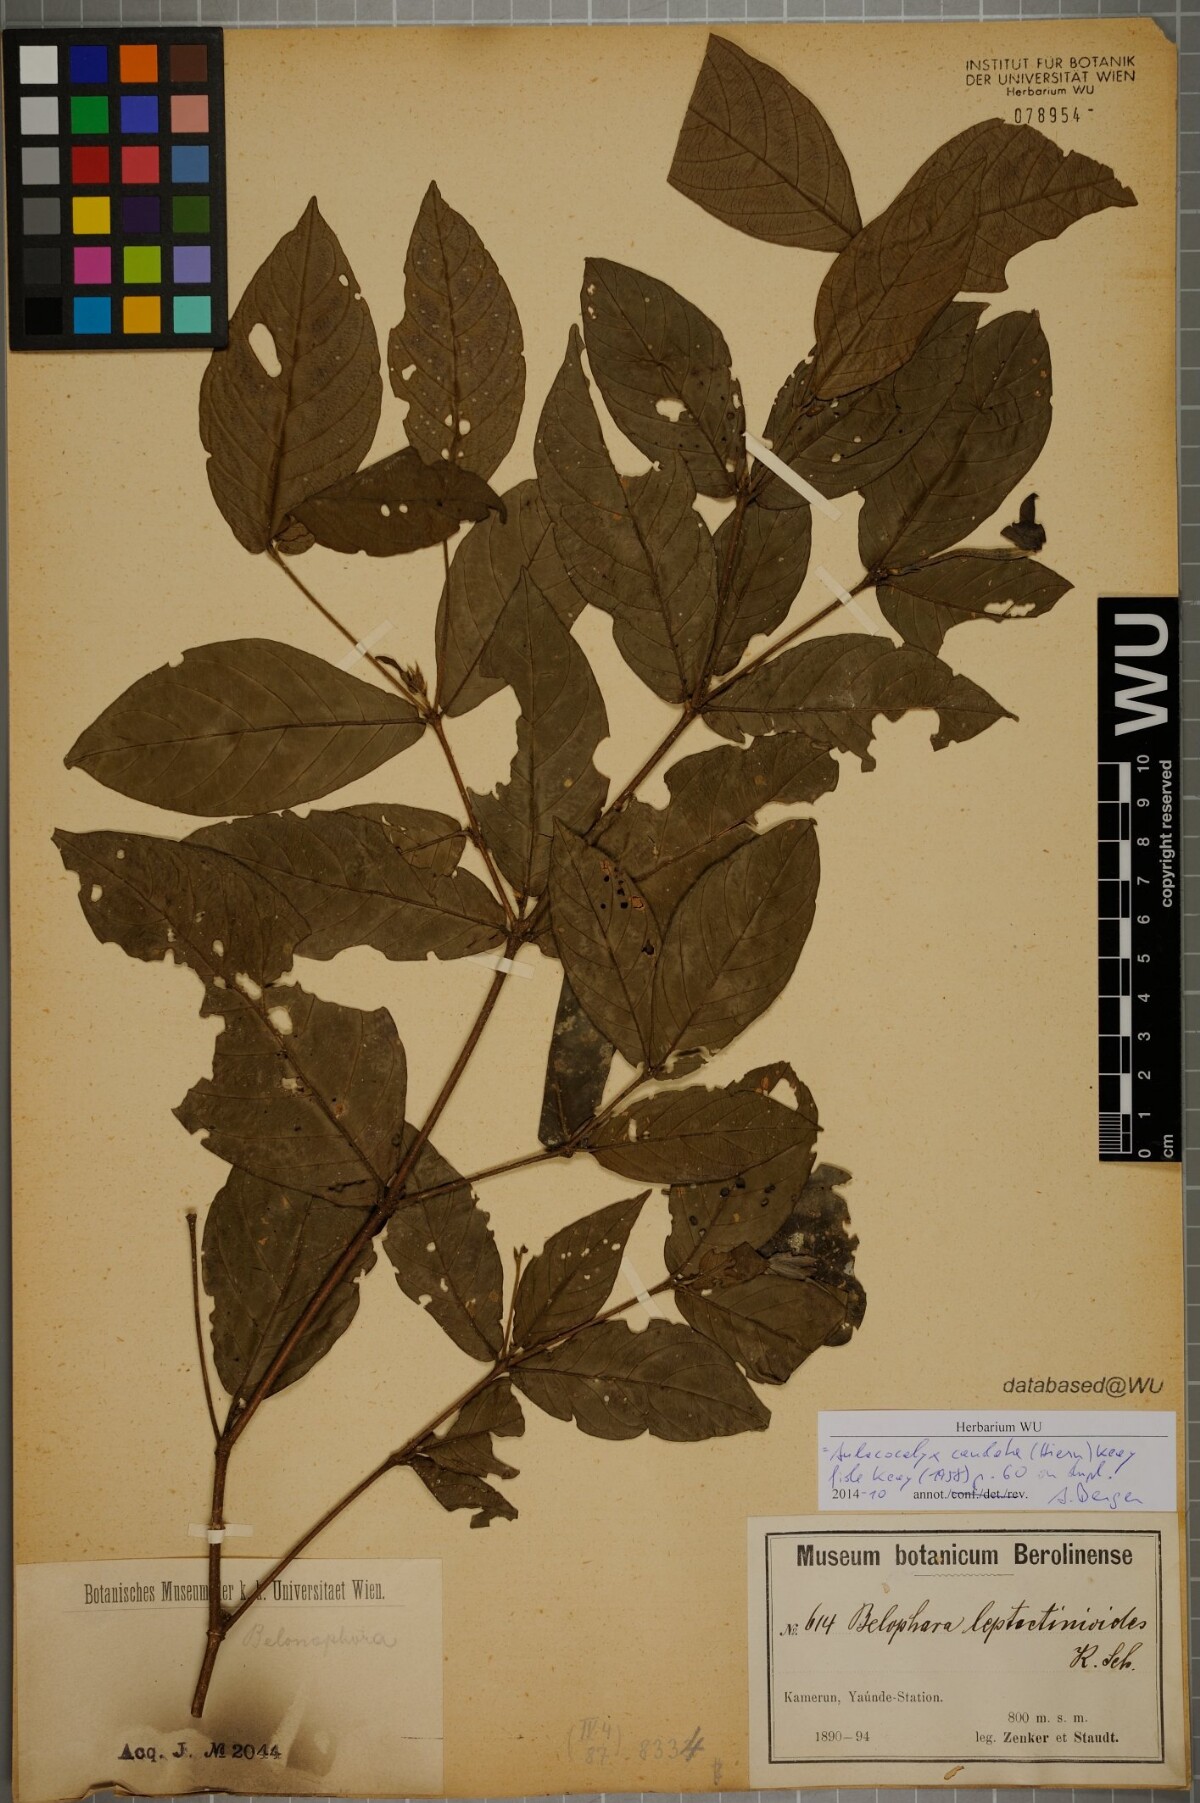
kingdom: Plantae
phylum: Tracheophyta
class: Magnoliopsida
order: Gentianales
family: Rubiaceae
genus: Aulacocalyx
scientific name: Aulacocalyx caudata
